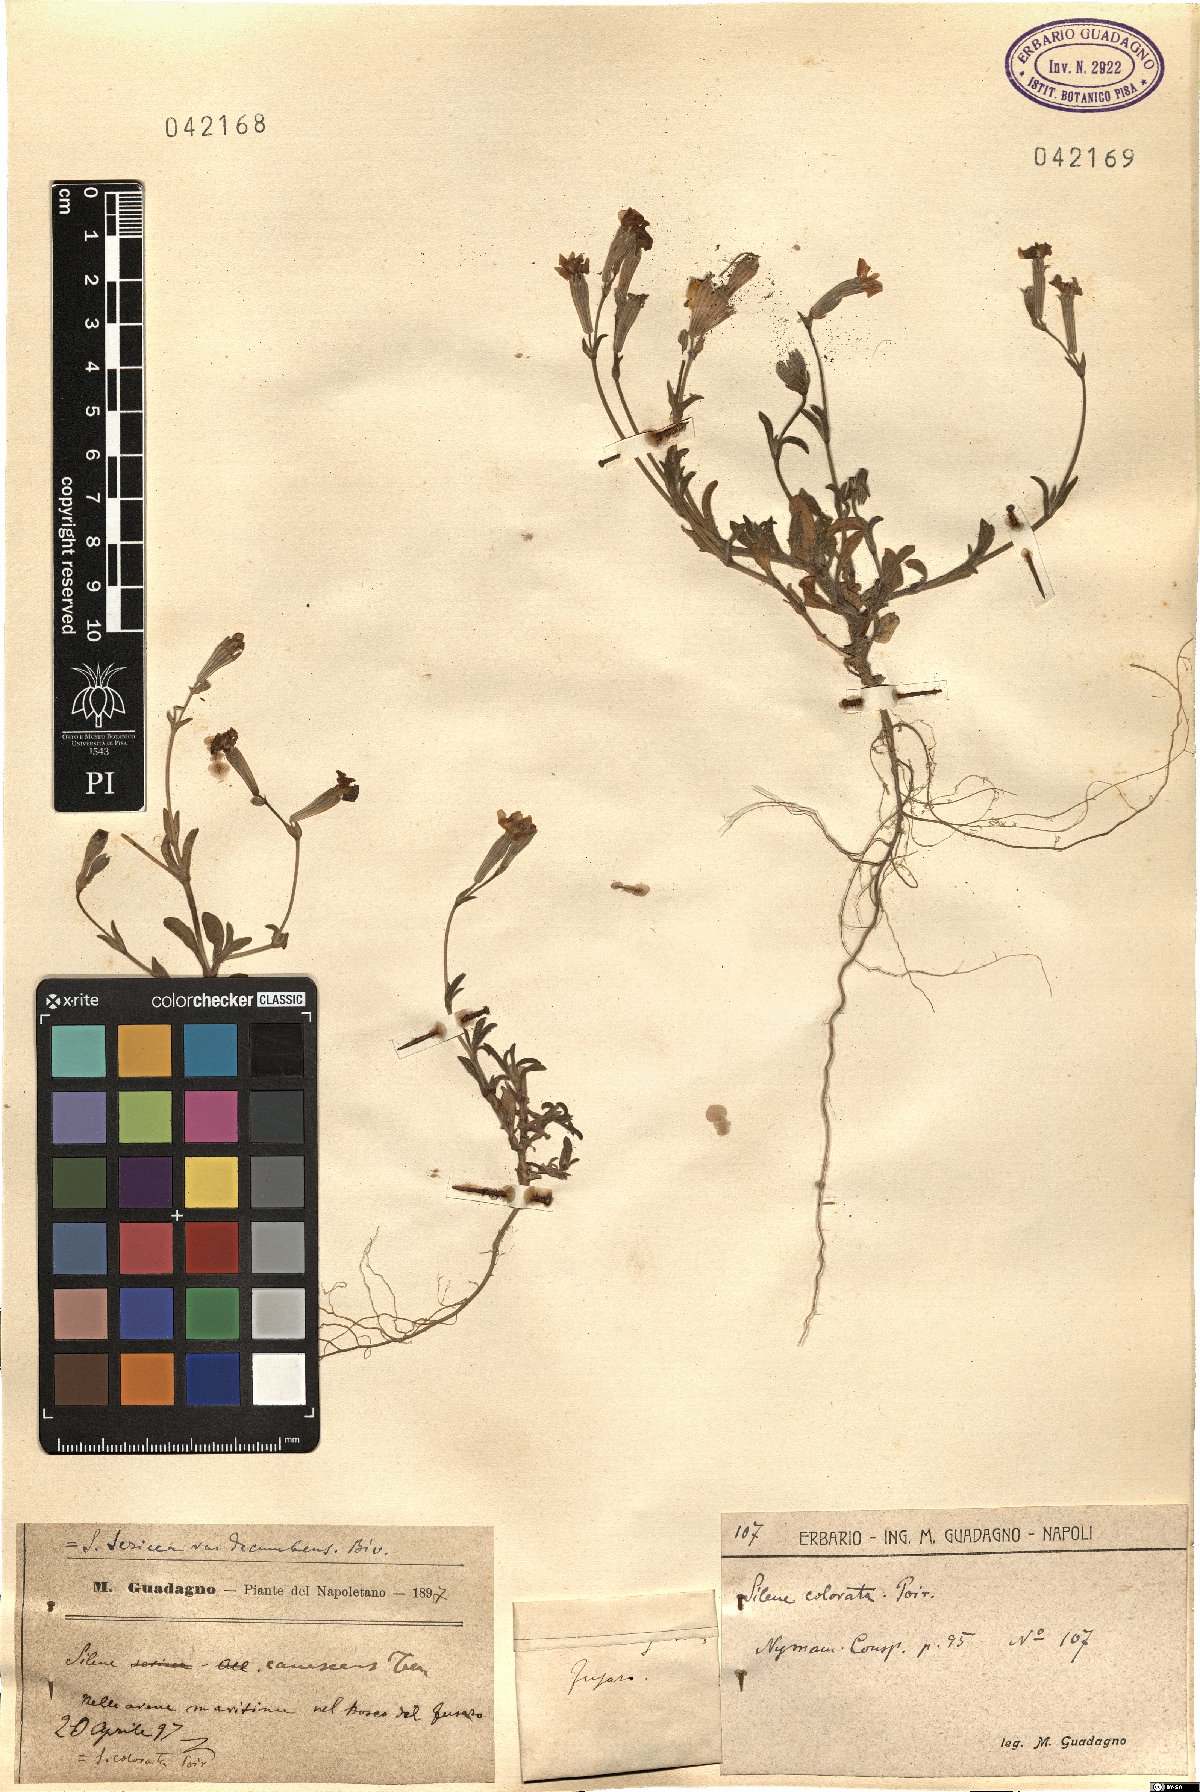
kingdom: Plantae
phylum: Tracheophyta
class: Magnoliopsida
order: Caryophyllales
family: Caryophyllaceae
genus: Silene
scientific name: Silene colorata
